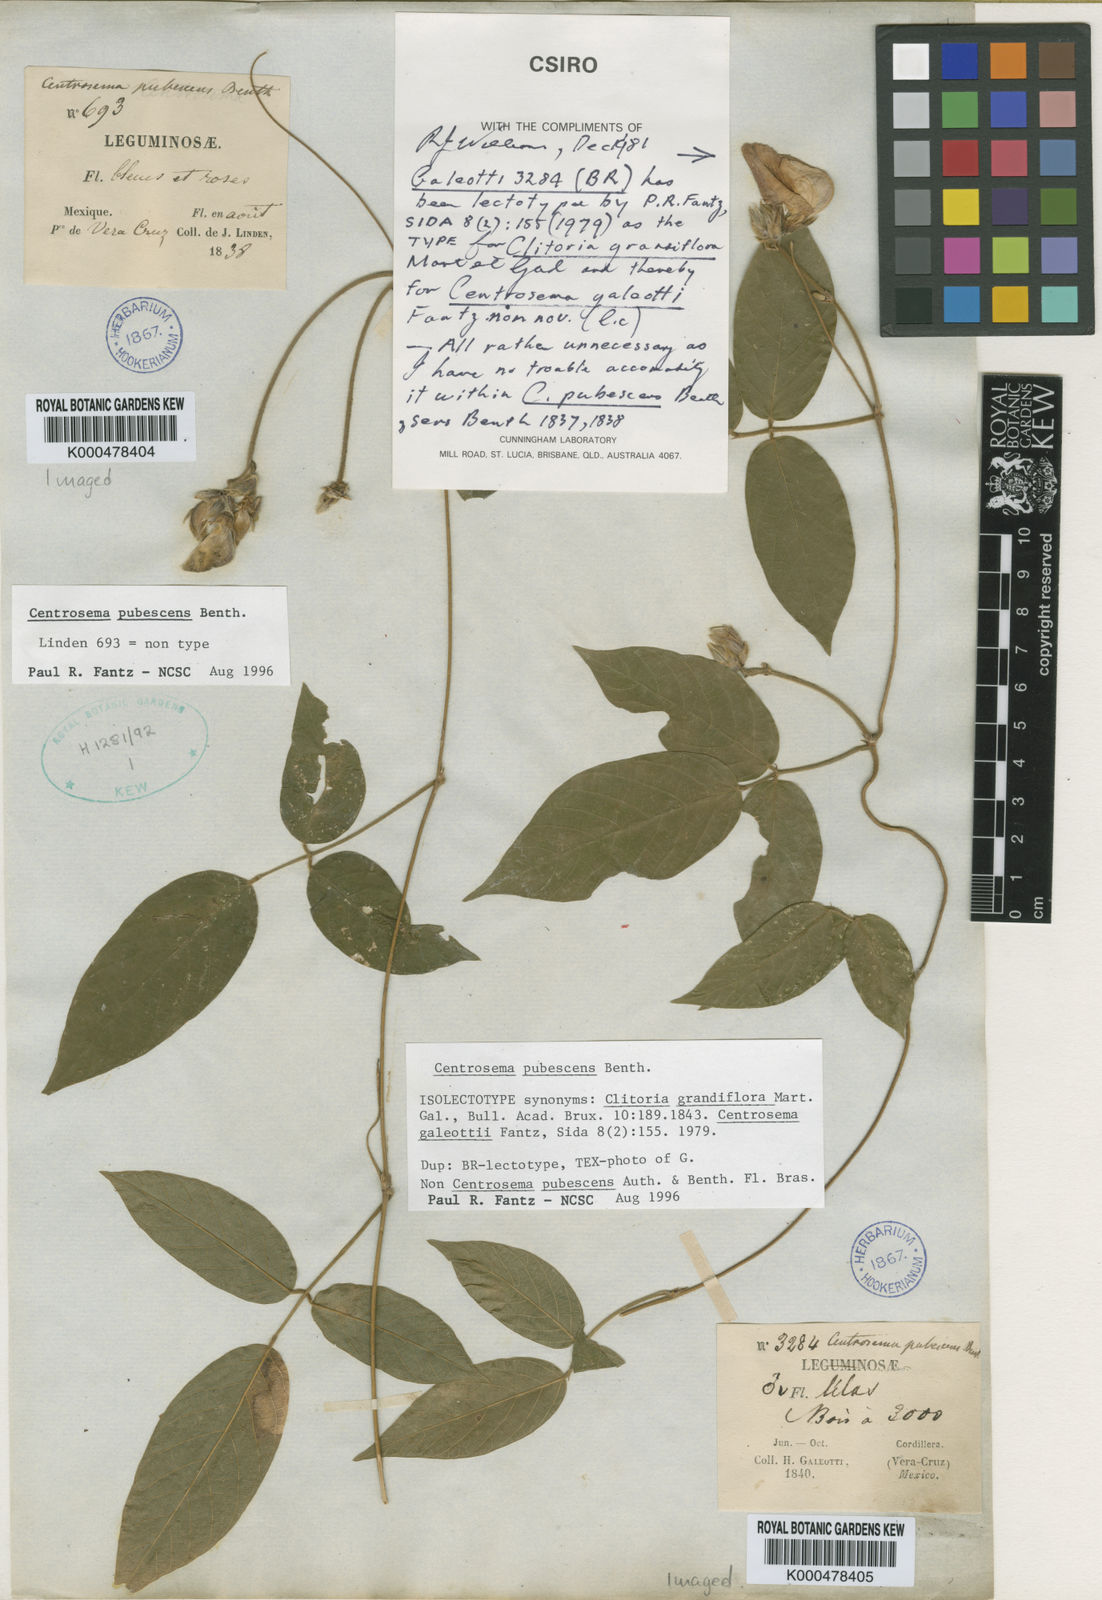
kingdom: Plantae
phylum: Tracheophyta
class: Magnoliopsida
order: Fabales
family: Fabaceae
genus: Centrosema
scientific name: Centrosema pubescens
